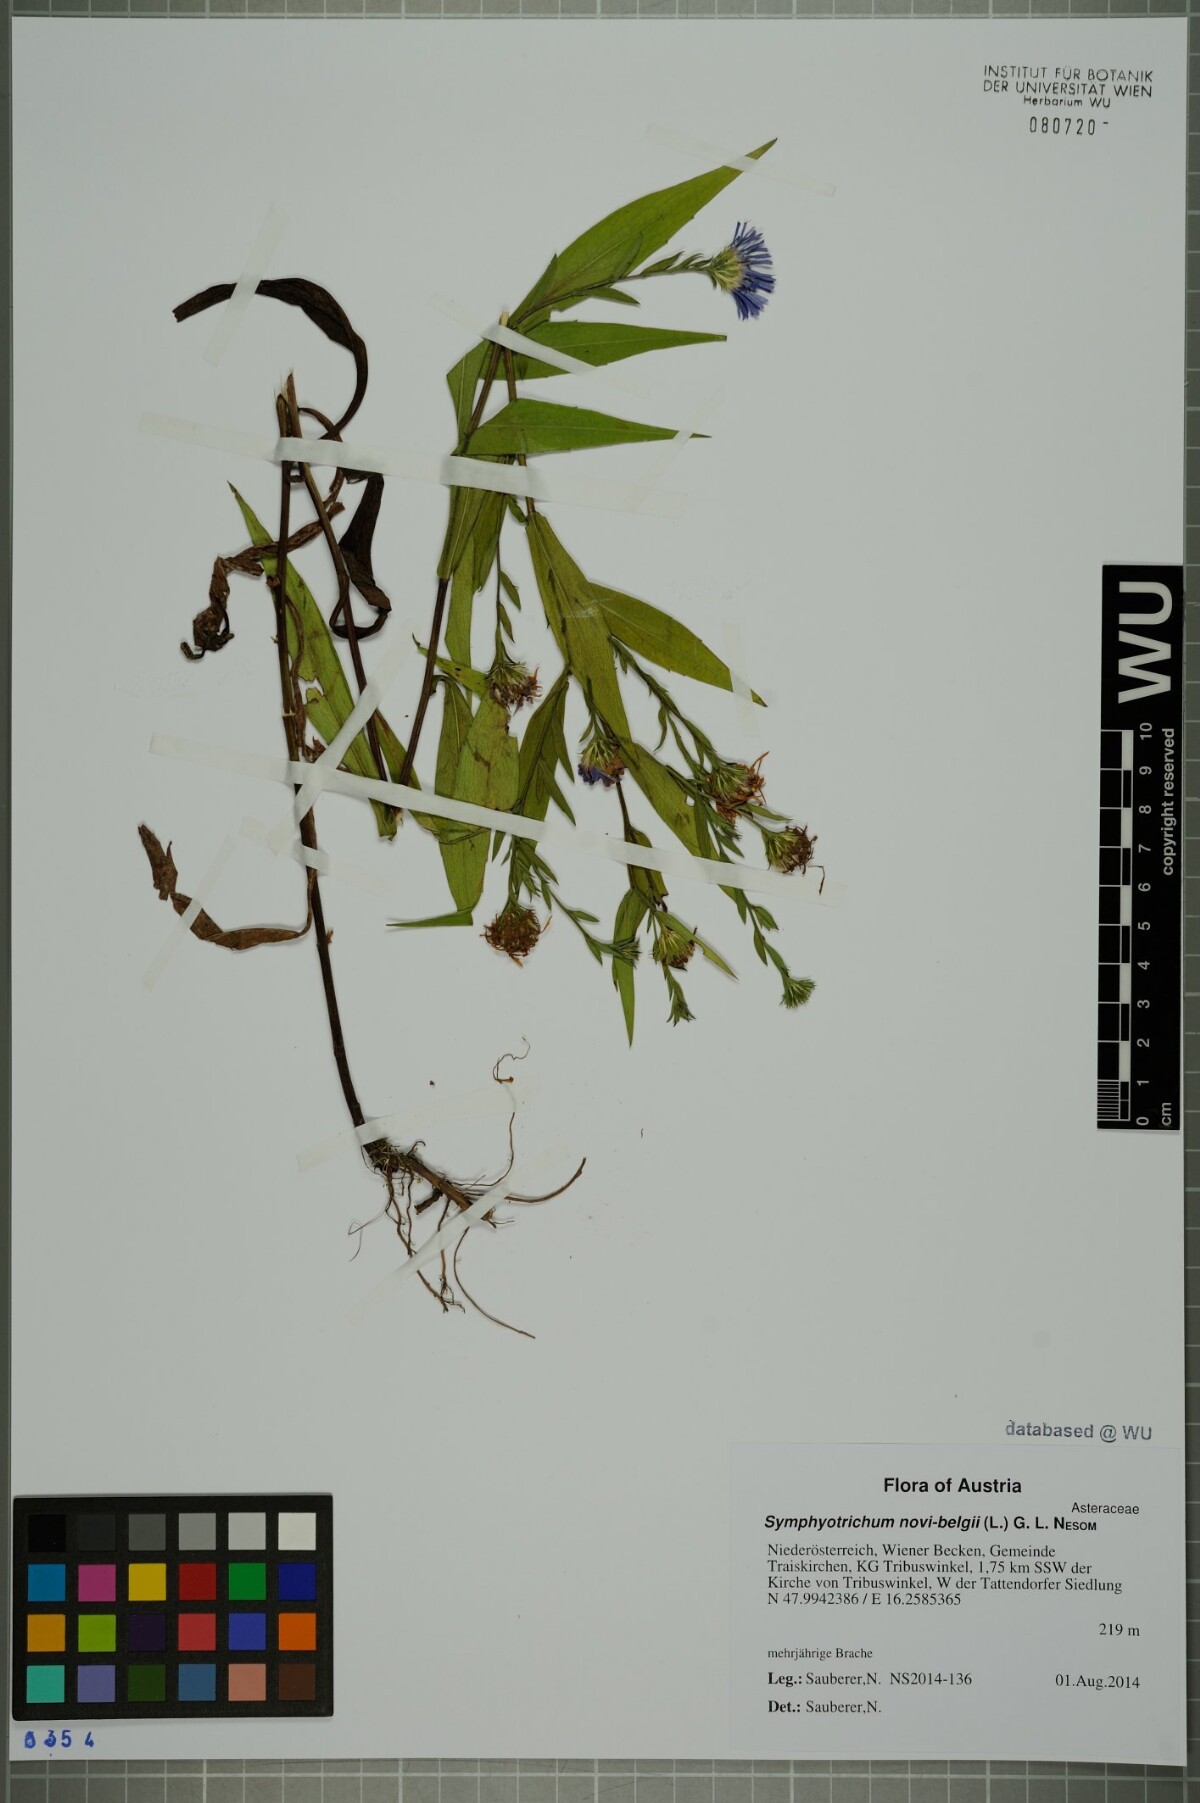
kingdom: Plantae
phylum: Tracheophyta
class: Magnoliopsida
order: Asterales
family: Asteraceae
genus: Symphyotrichum
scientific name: Symphyotrichum novi-belgii
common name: Michaelmas daisy
